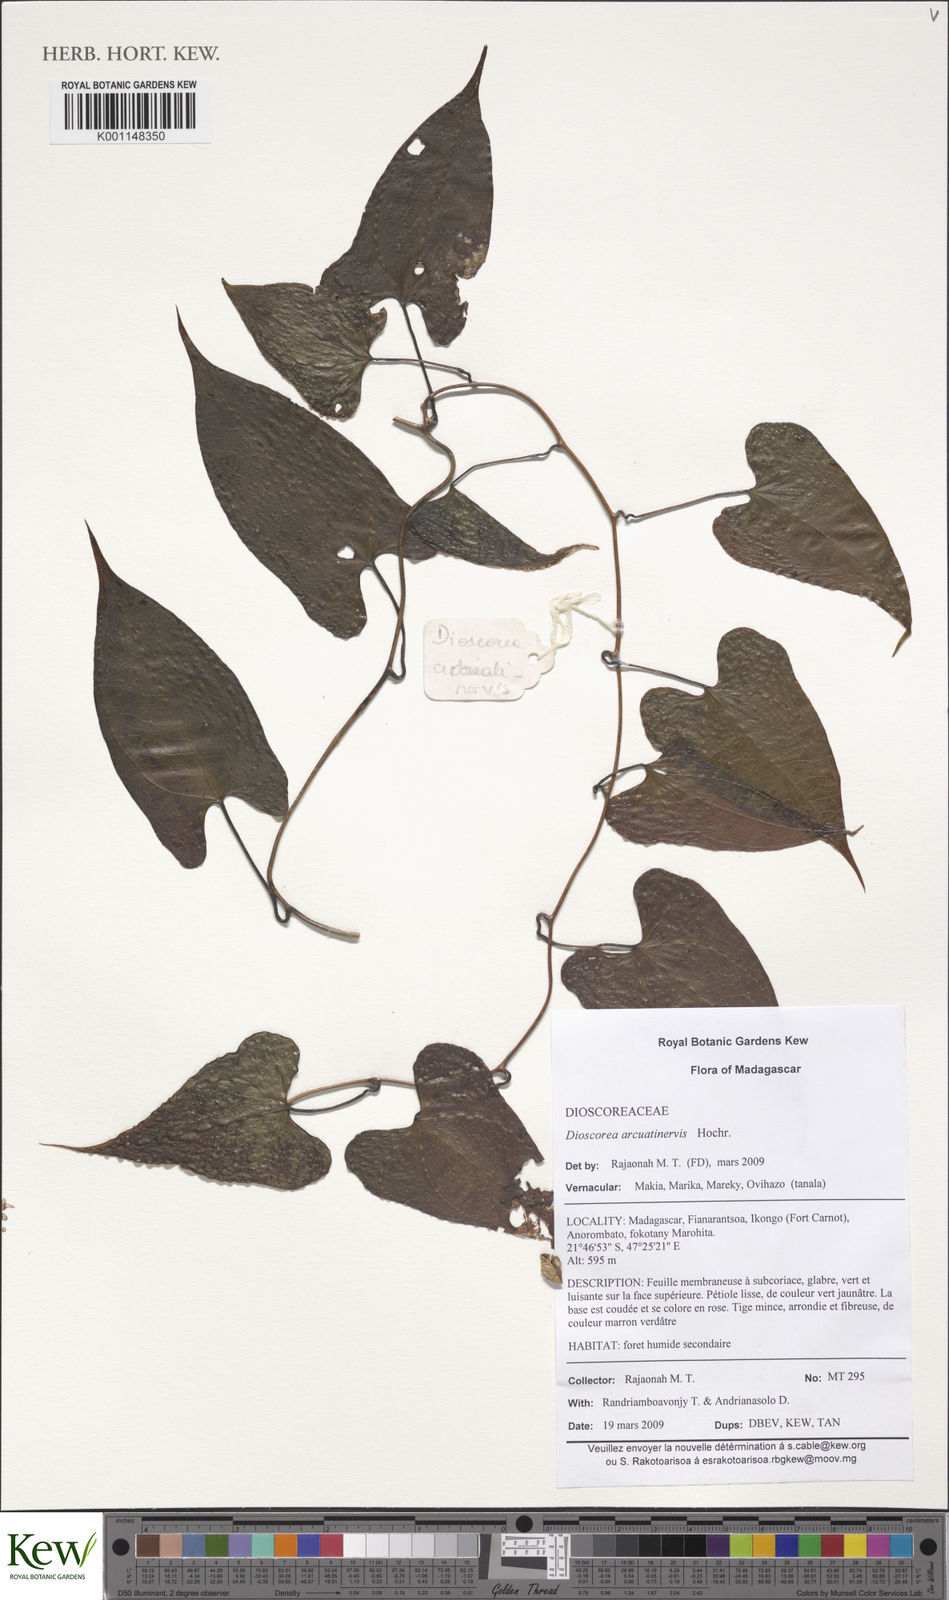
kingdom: Plantae
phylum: Tracheophyta
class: Liliopsida
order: Dioscoreales
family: Dioscoreaceae
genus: Dioscorea
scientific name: Dioscorea arcuatinervis
